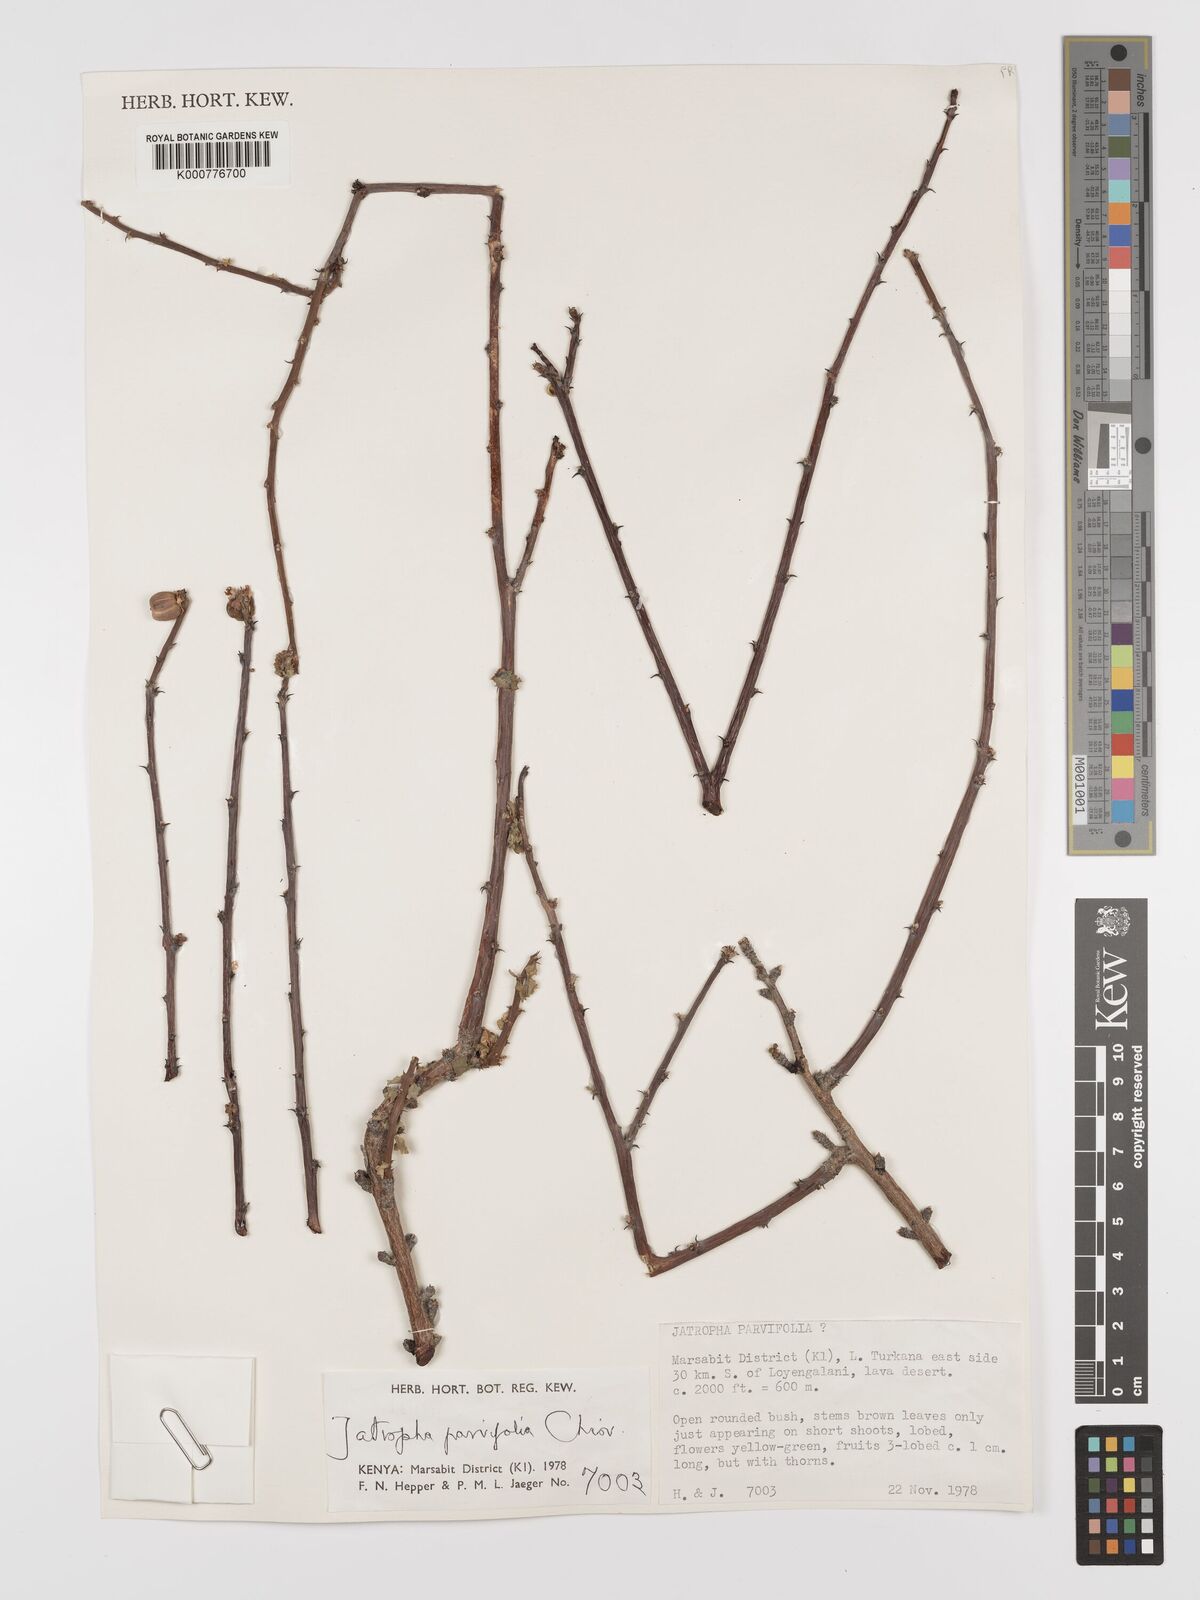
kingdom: Plantae
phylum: Tracheophyta
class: Magnoliopsida
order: Malpighiales
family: Euphorbiaceae
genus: Jatropha
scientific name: Jatropha rivae
